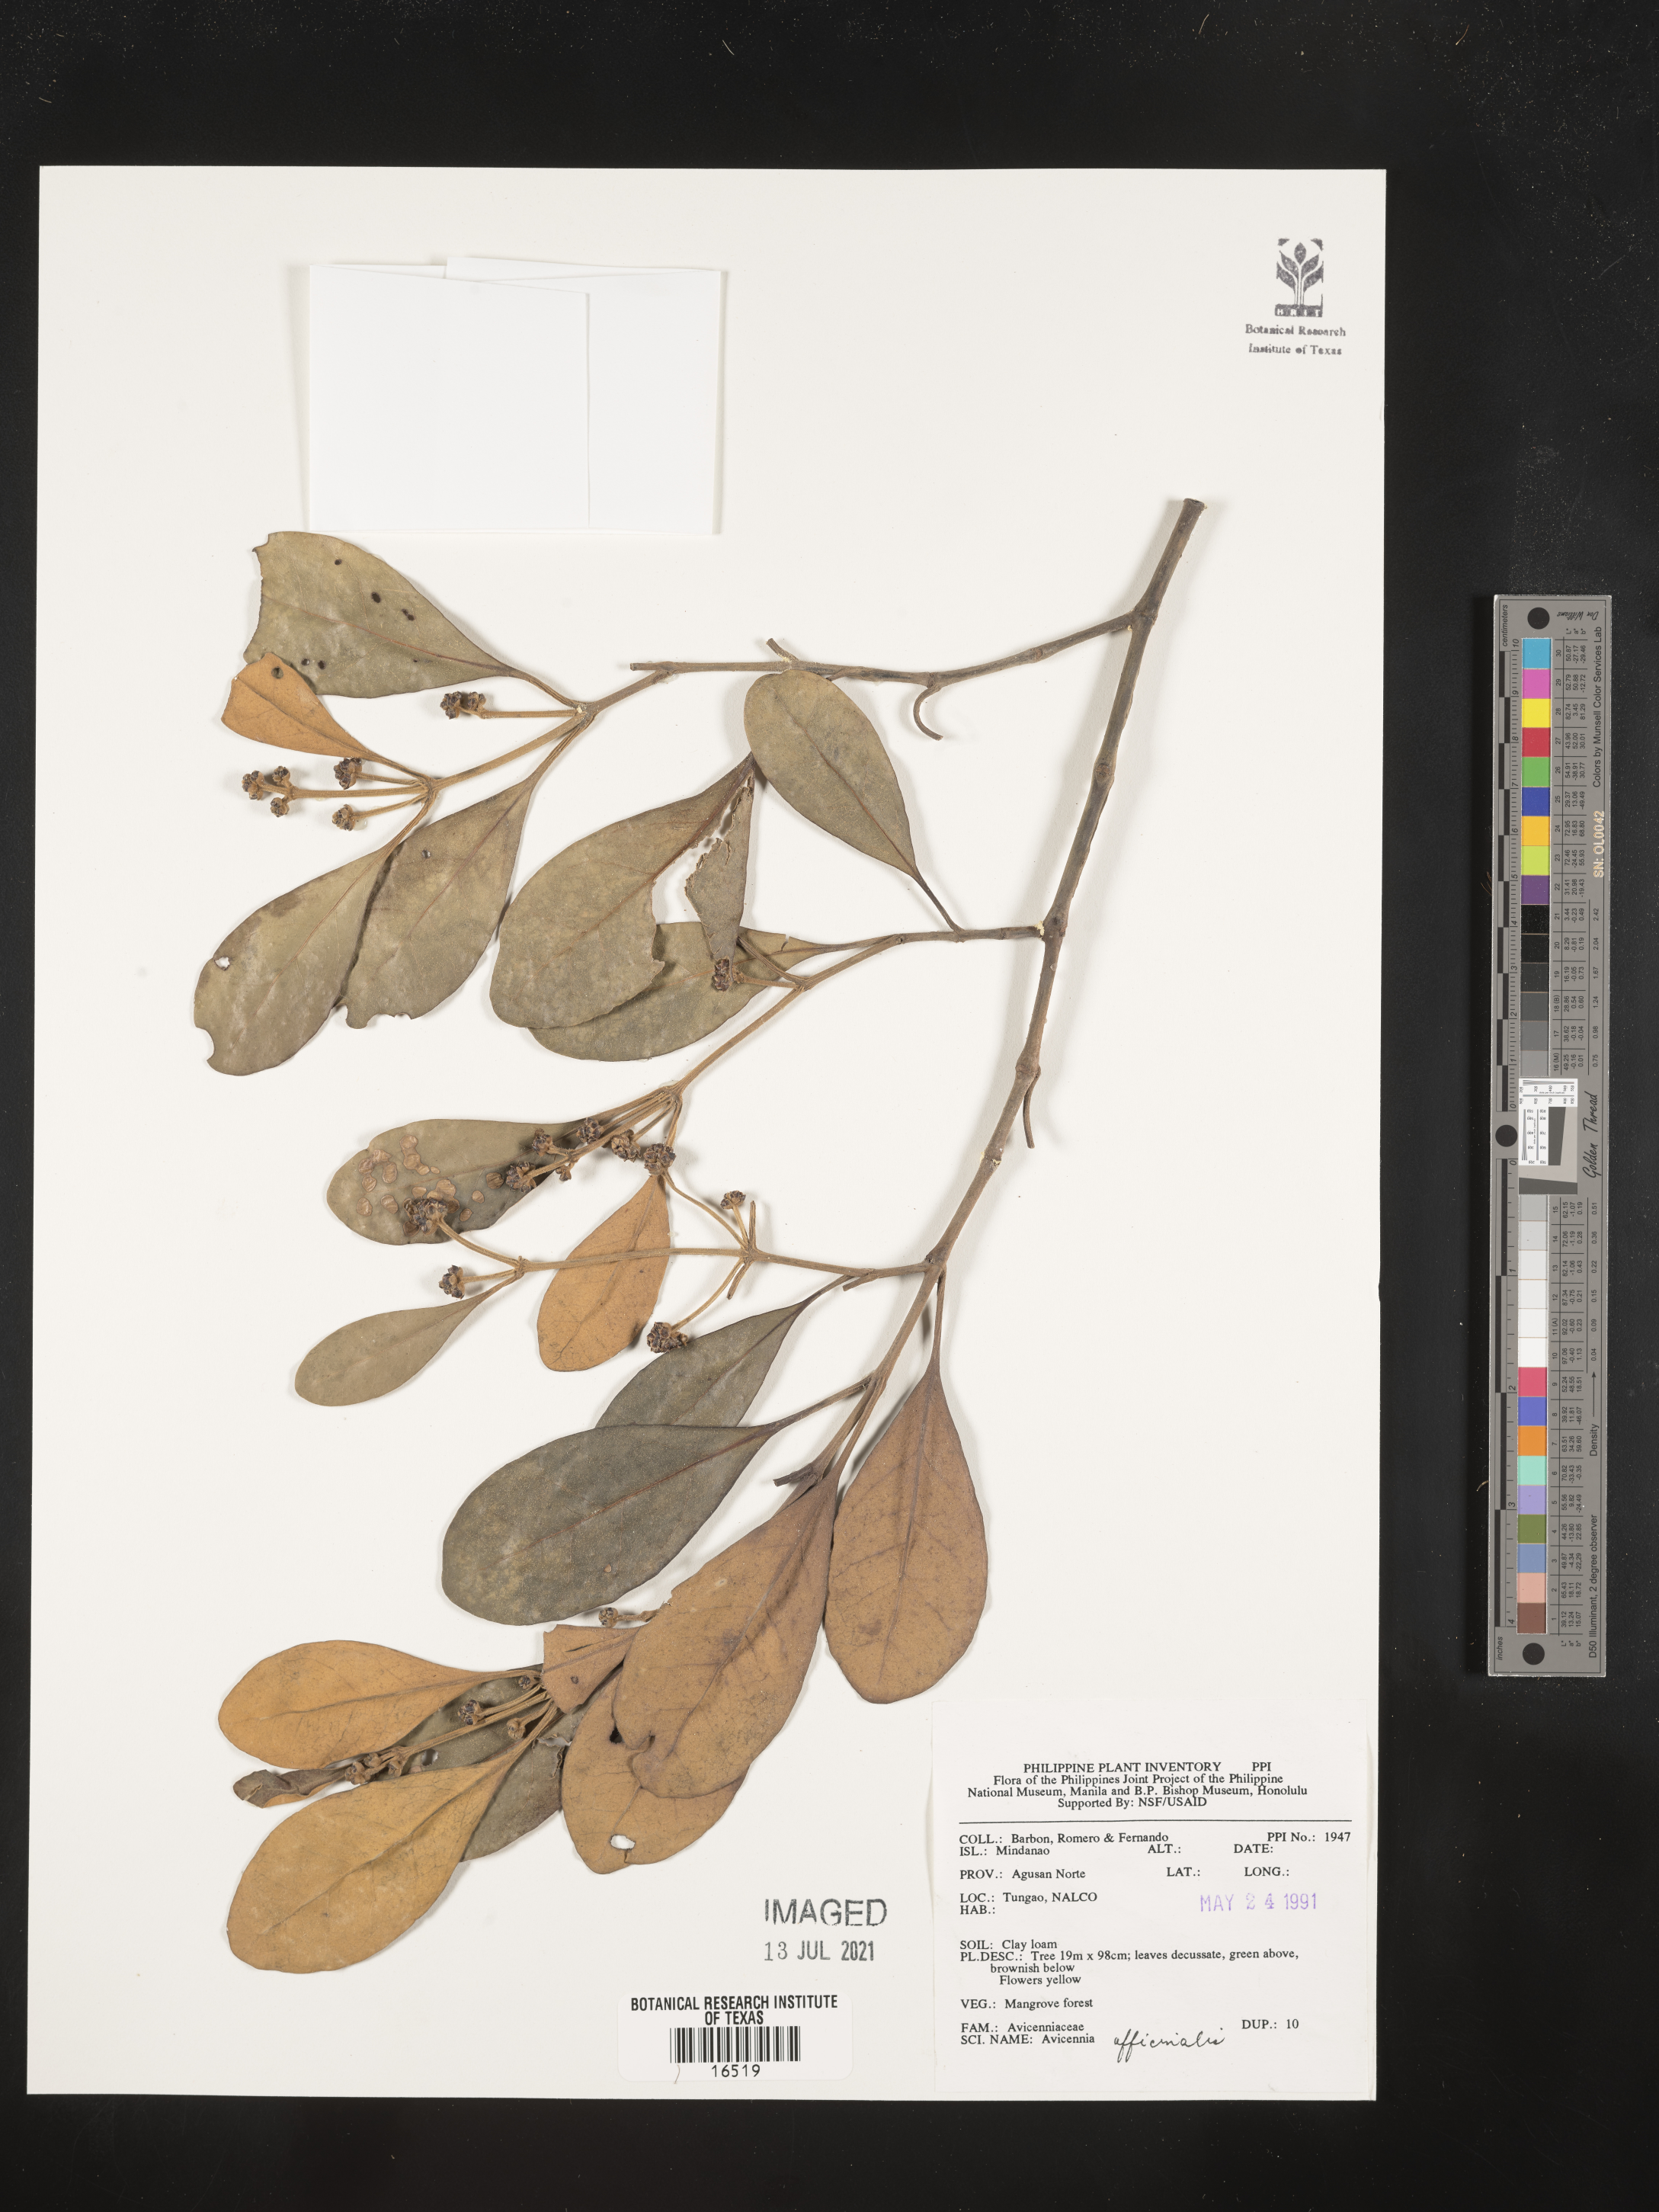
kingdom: Plantae
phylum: Tracheophyta
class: Magnoliopsida
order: Lamiales
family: Acanthaceae
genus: Avicennia
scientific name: Avicennia officinalis
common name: Baen
